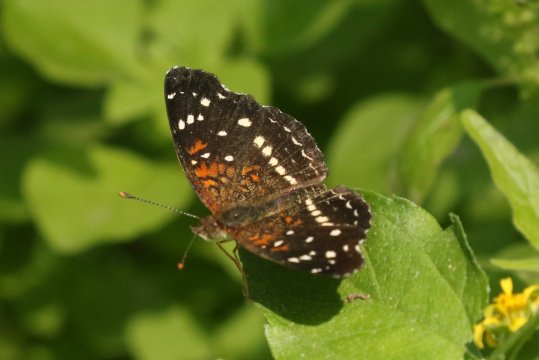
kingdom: Animalia
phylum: Arthropoda
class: Insecta
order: Lepidoptera
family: Nymphalidae
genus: Anthanassa
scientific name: Anthanassa texana
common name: Texan Crescent
